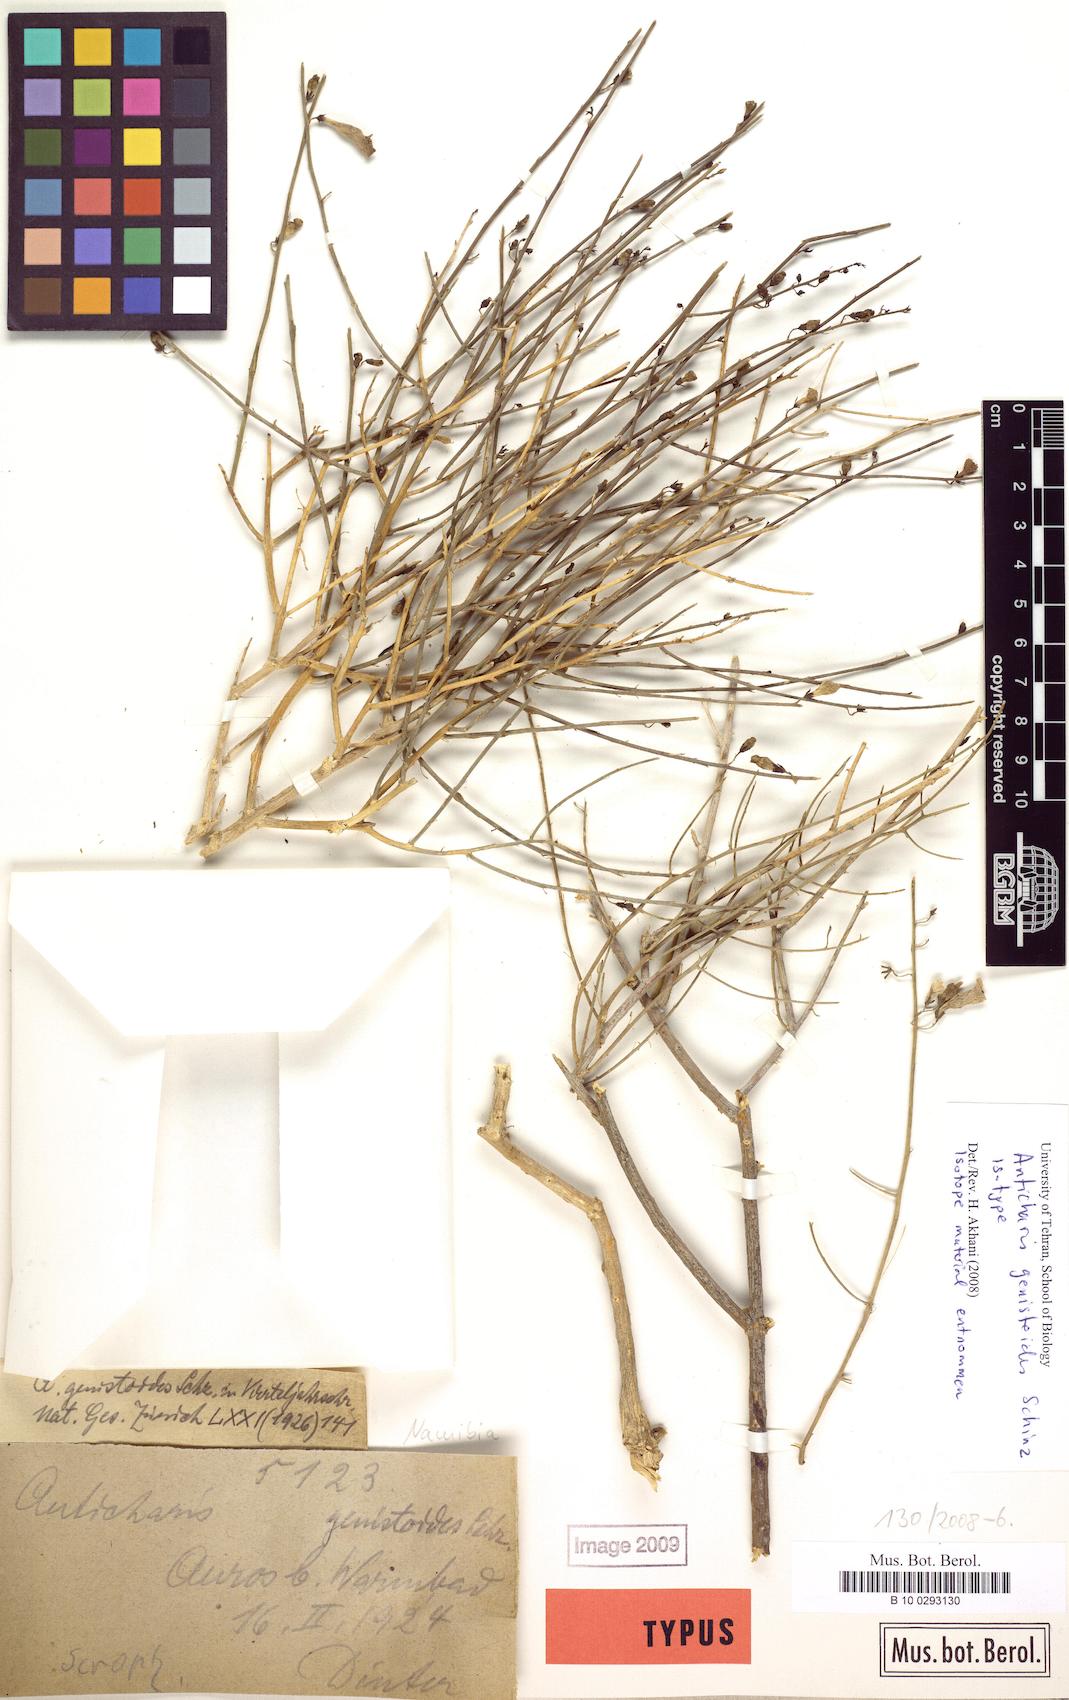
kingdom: Plantae
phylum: Tracheophyta
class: Magnoliopsida
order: Lamiales
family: Scrophulariaceae
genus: Anticharis
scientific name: Anticharis juncea
